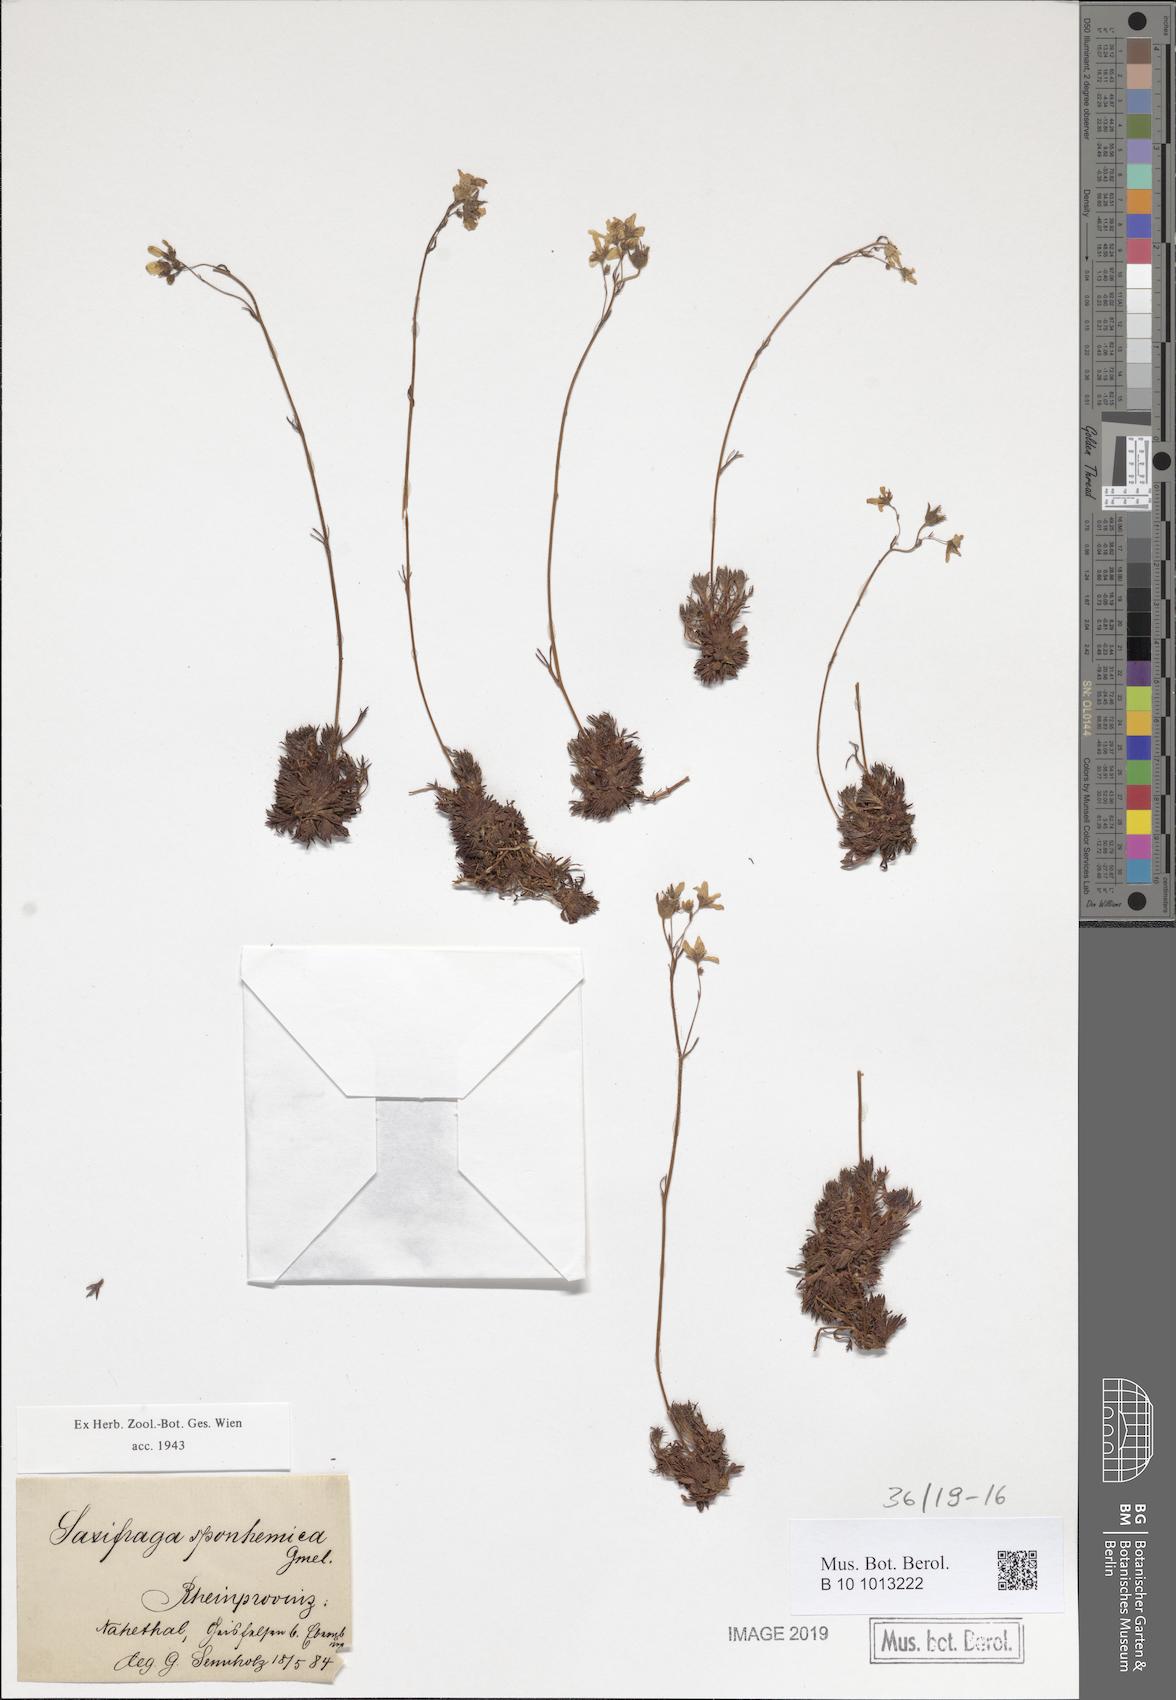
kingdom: Plantae
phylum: Tracheophyta
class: Magnoliopsida
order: Saxifragales
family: Saxifragaceae
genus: Saxifraga
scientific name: Saxifraga rosacea
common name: Irish saxifrage
